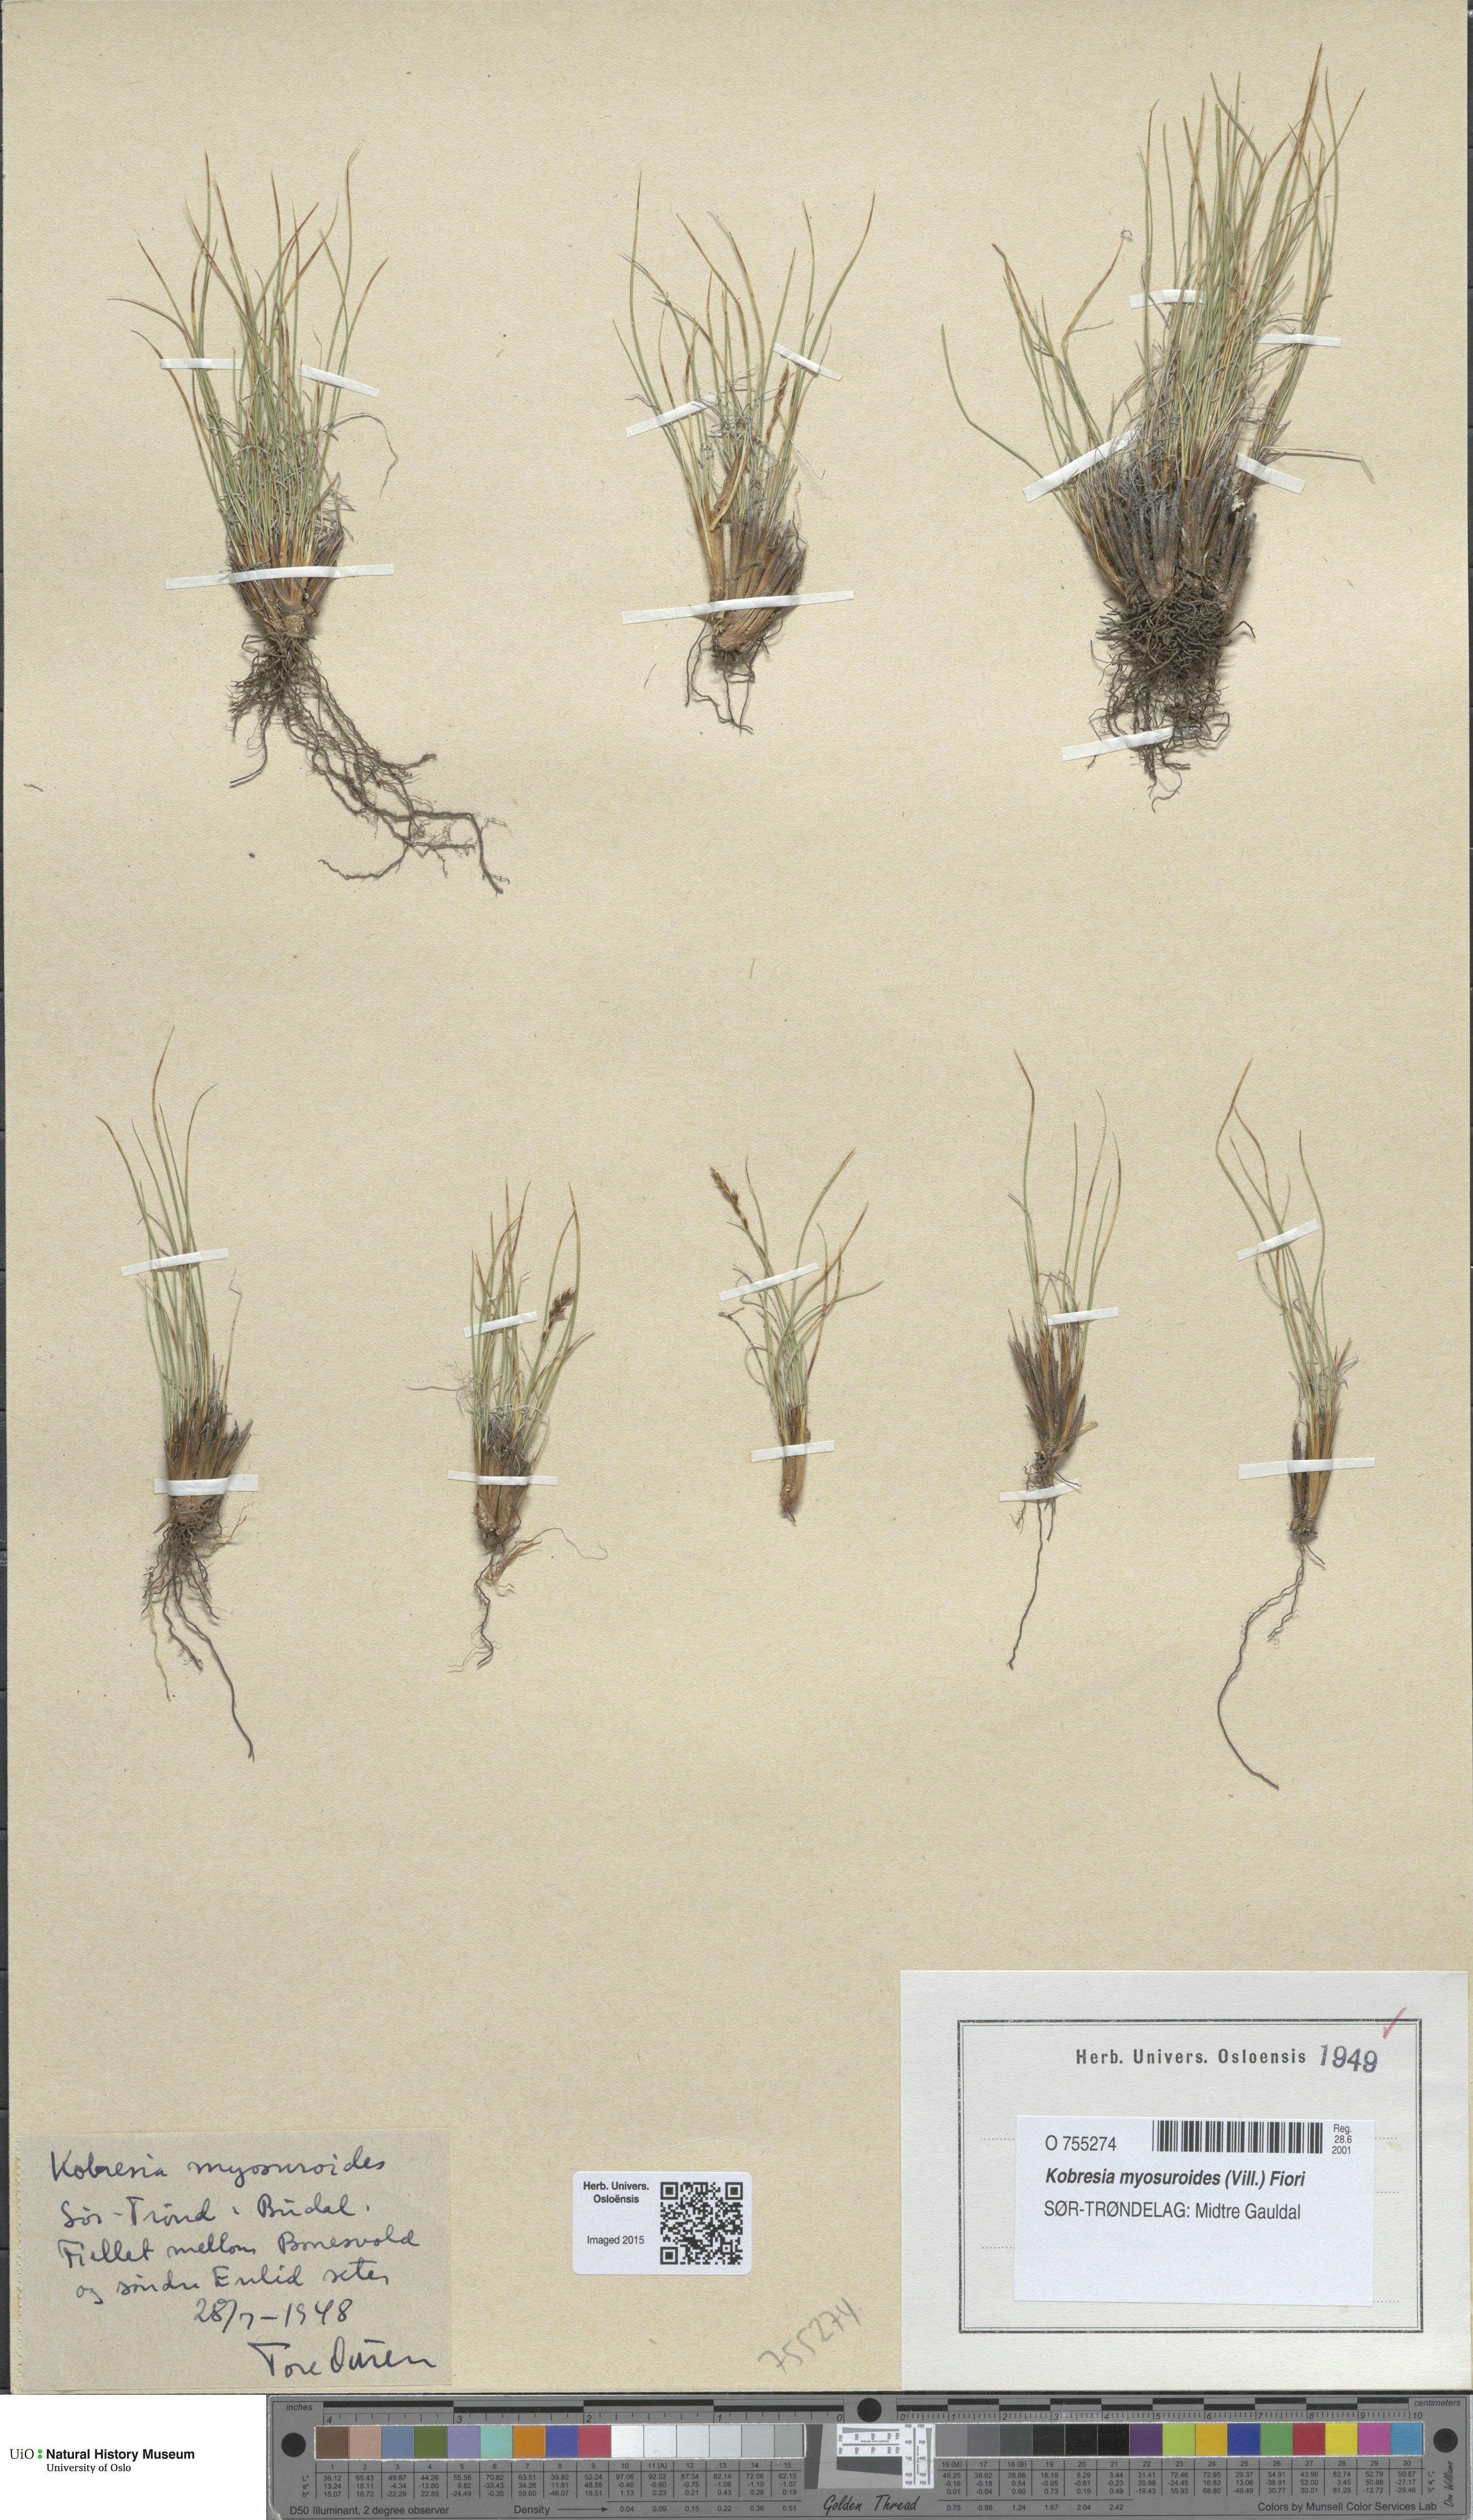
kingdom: Plantae
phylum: Tracheophyta
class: Liliopsida
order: Poales
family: Cyperaceae
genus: Carex
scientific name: Carex myosuroides
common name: Bellard's bog sedge
